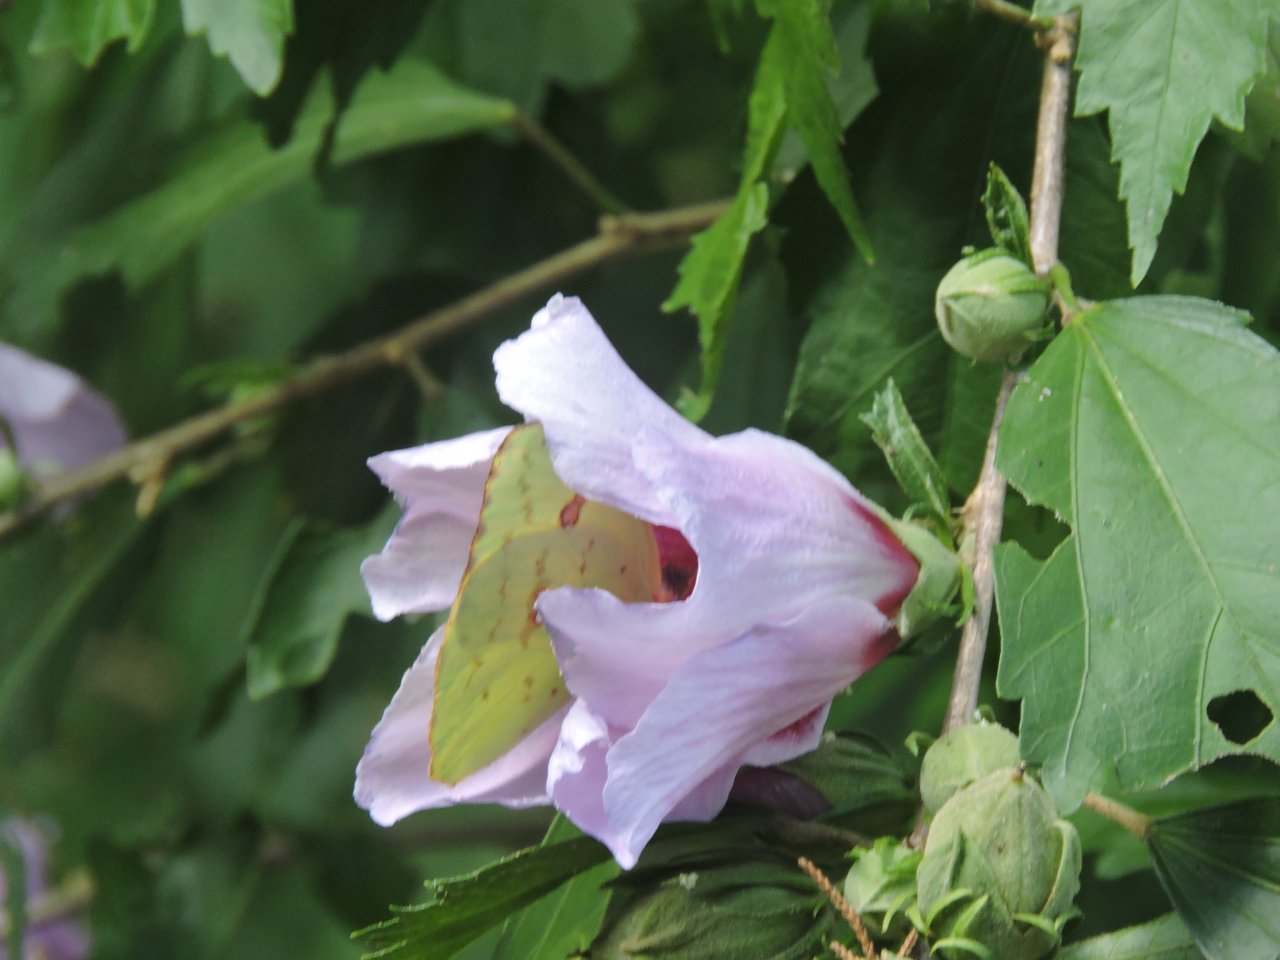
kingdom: Animalia
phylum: Arthropoda
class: Insecta
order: Lepidoptera
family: Pieridae
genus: Phoebis
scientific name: Phoebis sennae
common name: Cloudless Sulphur
